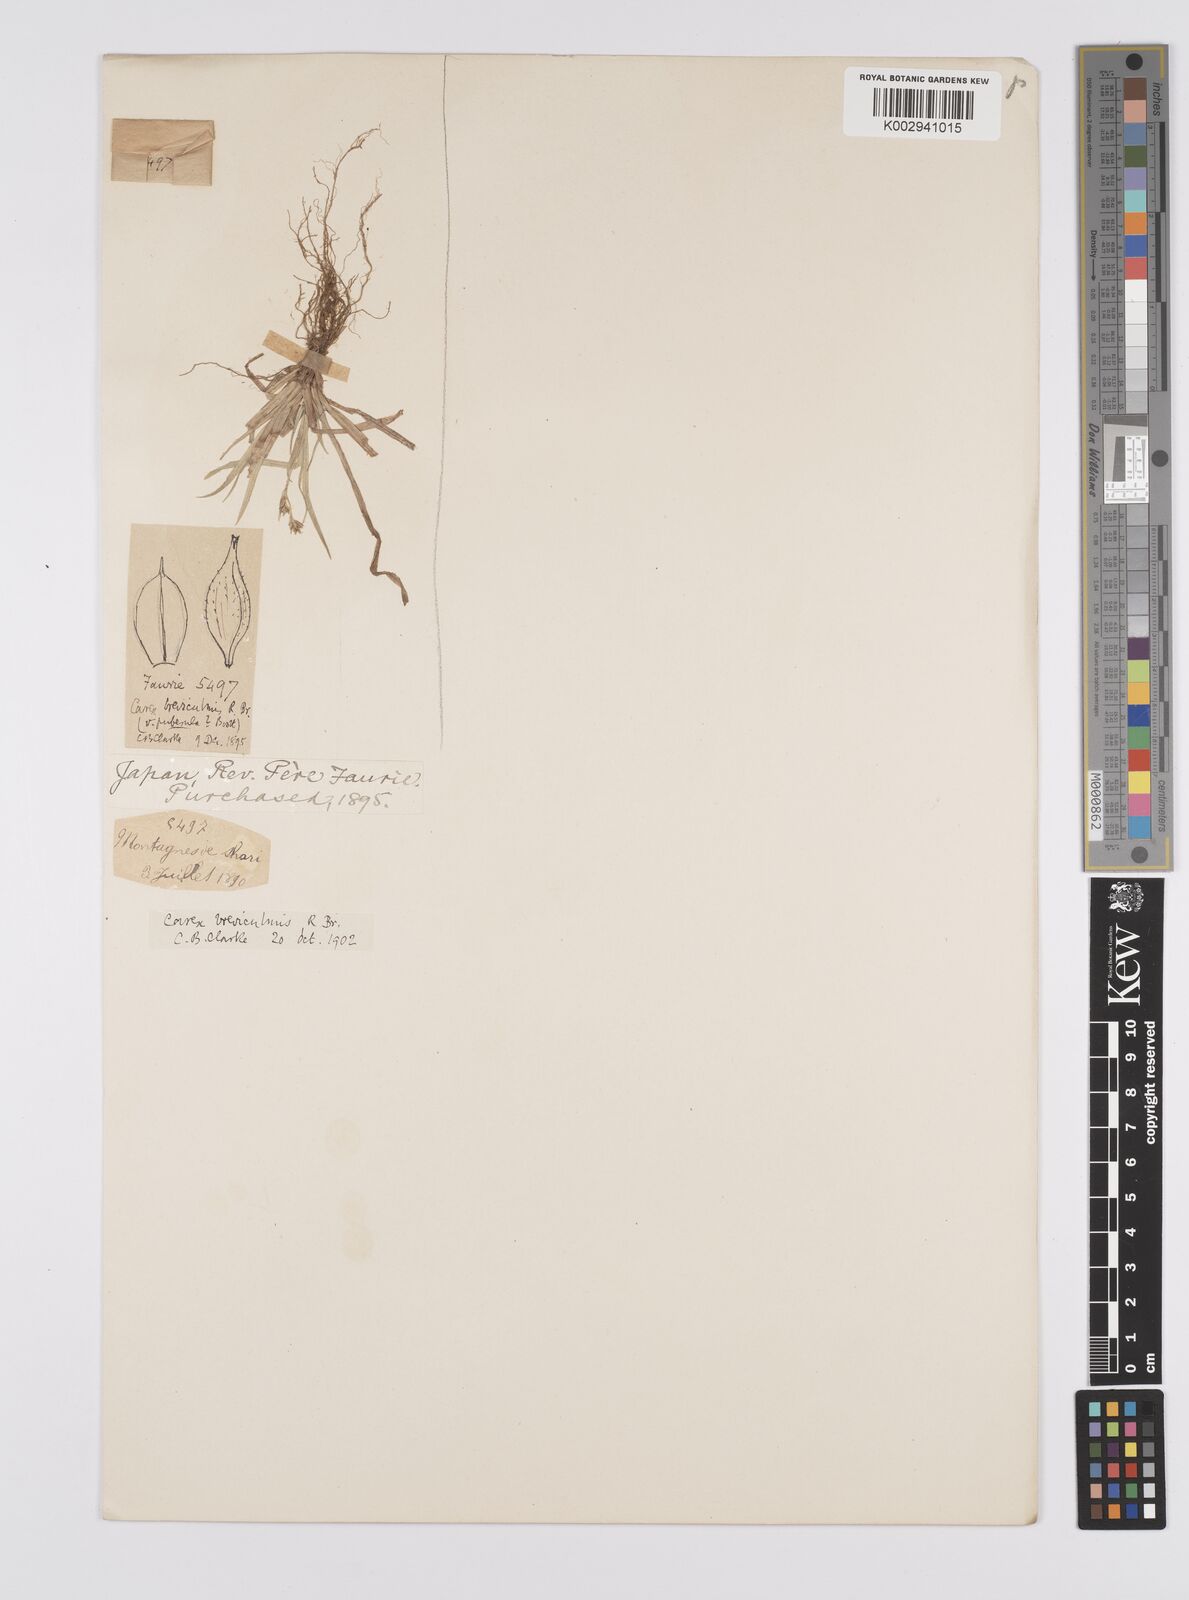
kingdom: Plantae
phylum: Tracheophyta
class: Liliopsida
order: Poales
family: Cyperaceae
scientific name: Cyperaceae
